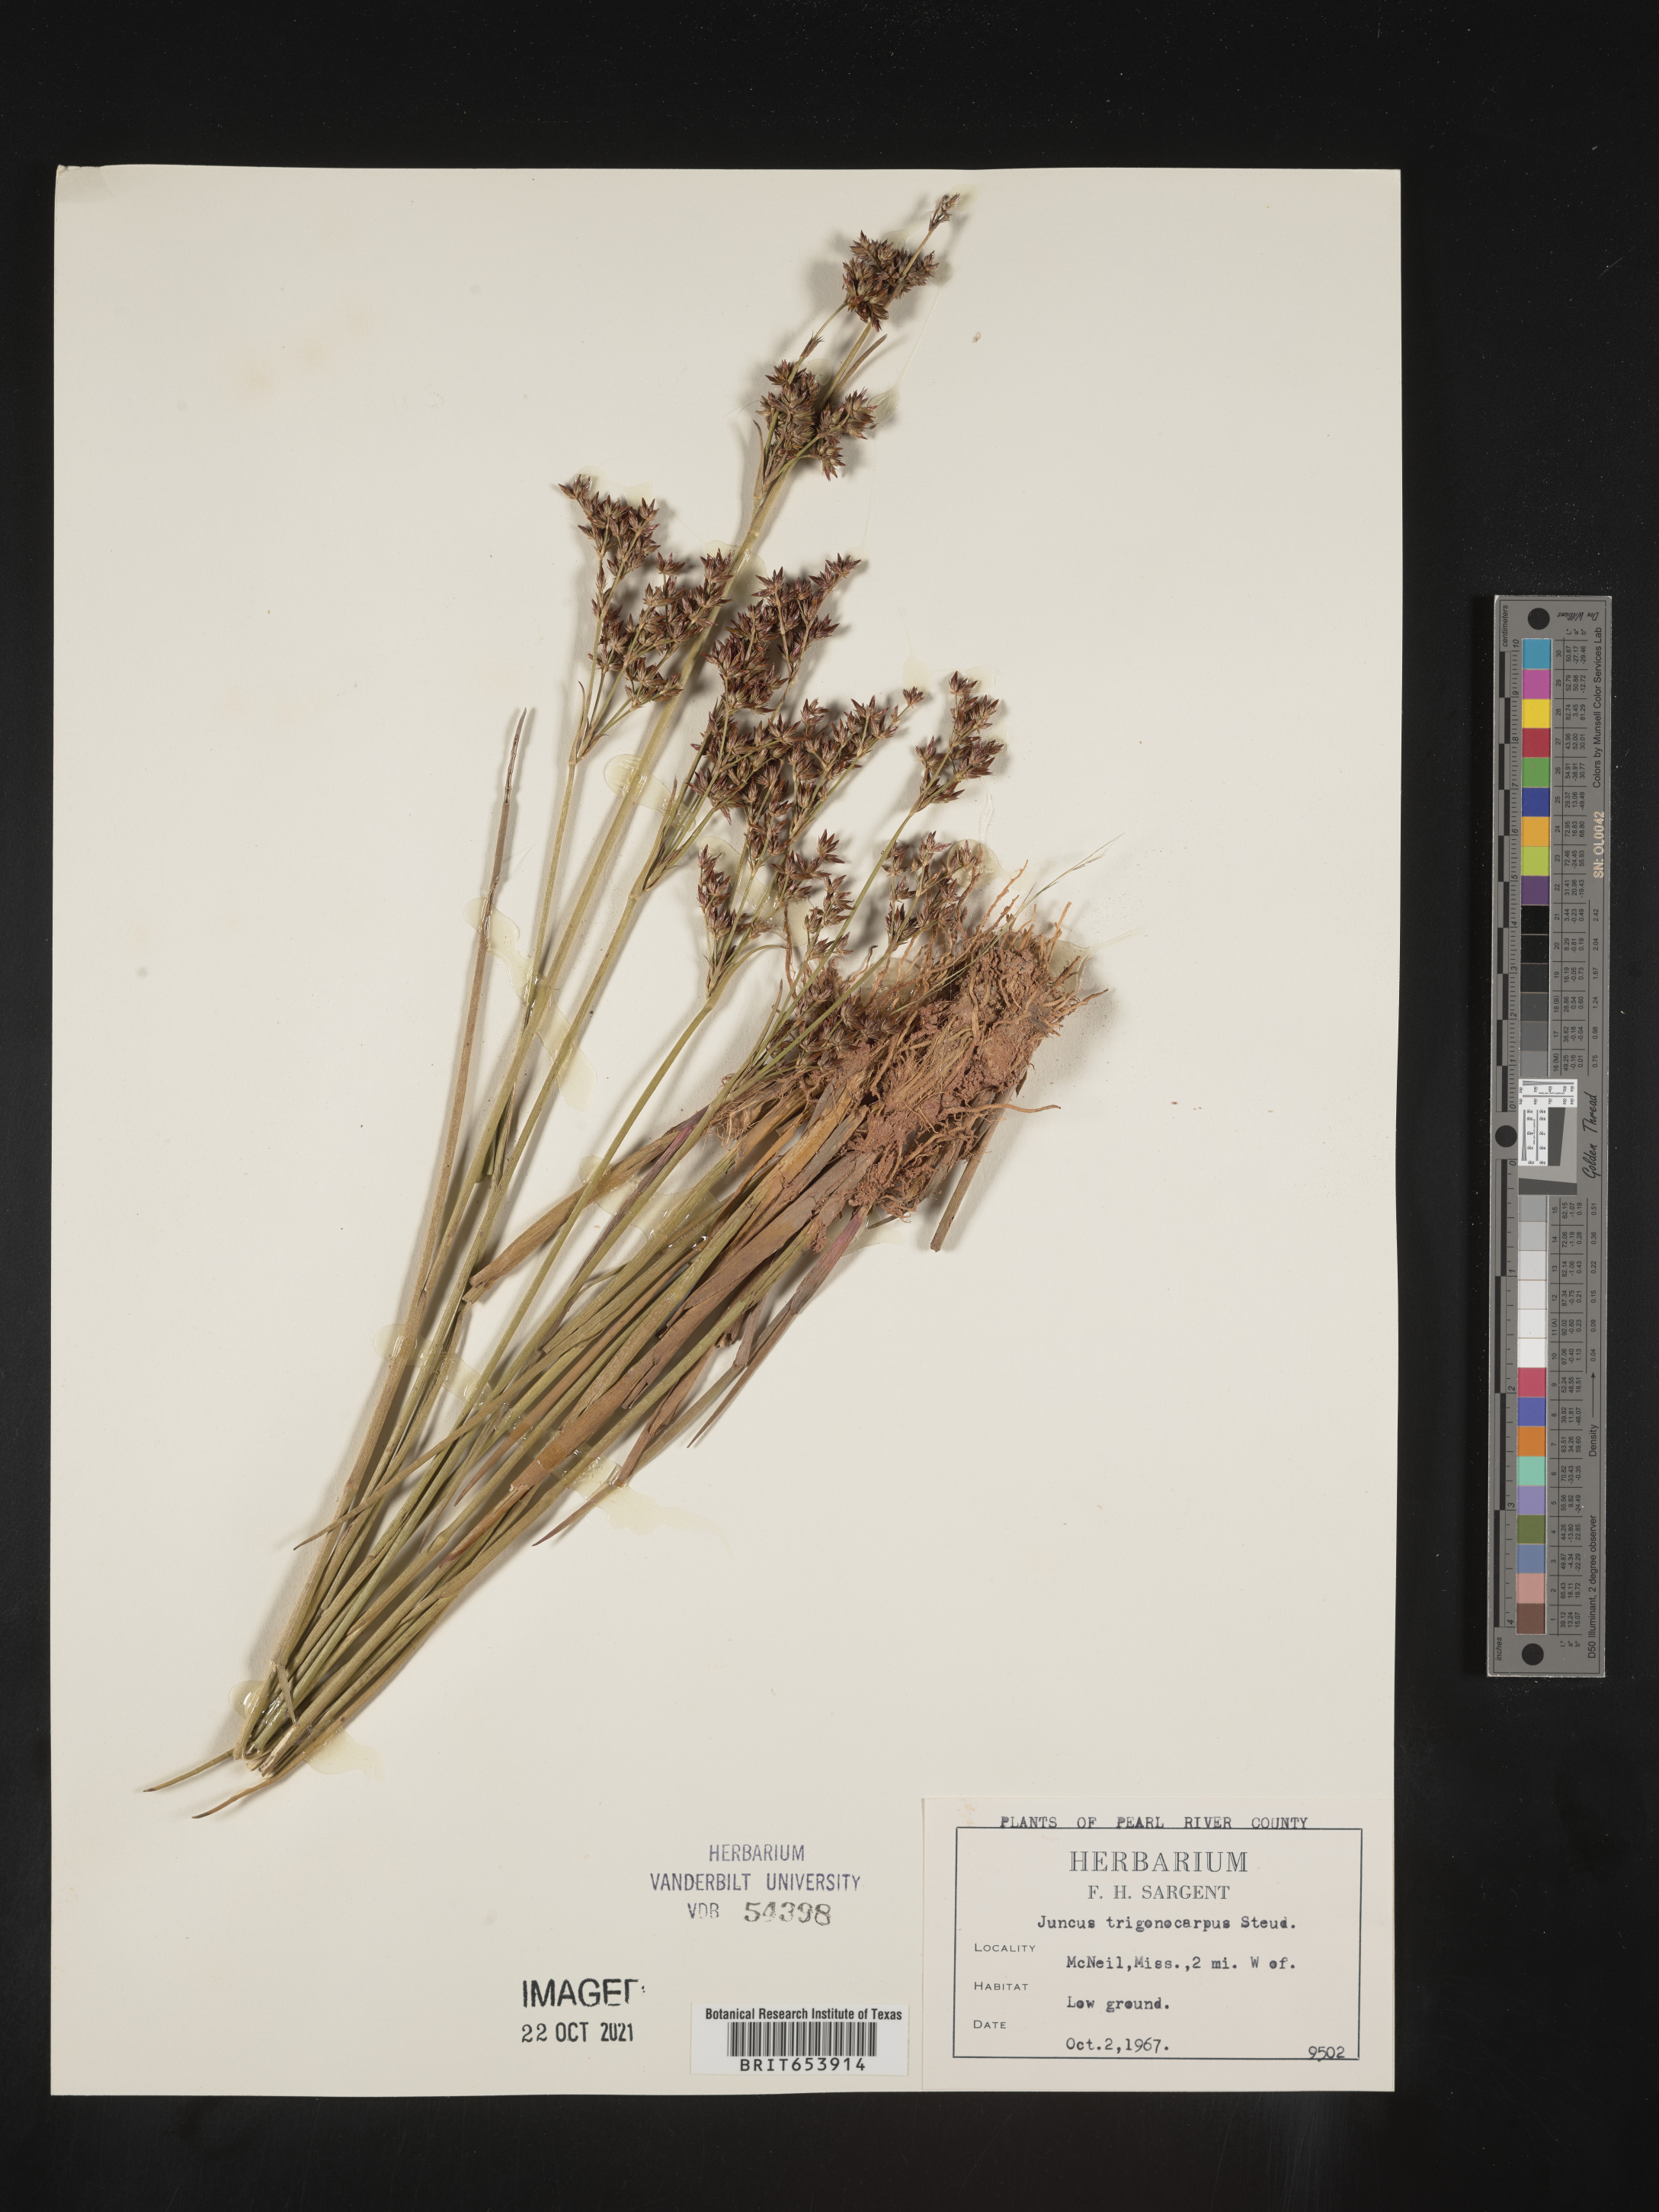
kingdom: Plantae
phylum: Tracheophyta
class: Liliopsida
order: Poales
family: Juncaceae
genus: Juncus
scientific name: Juncus trigonocarpus
